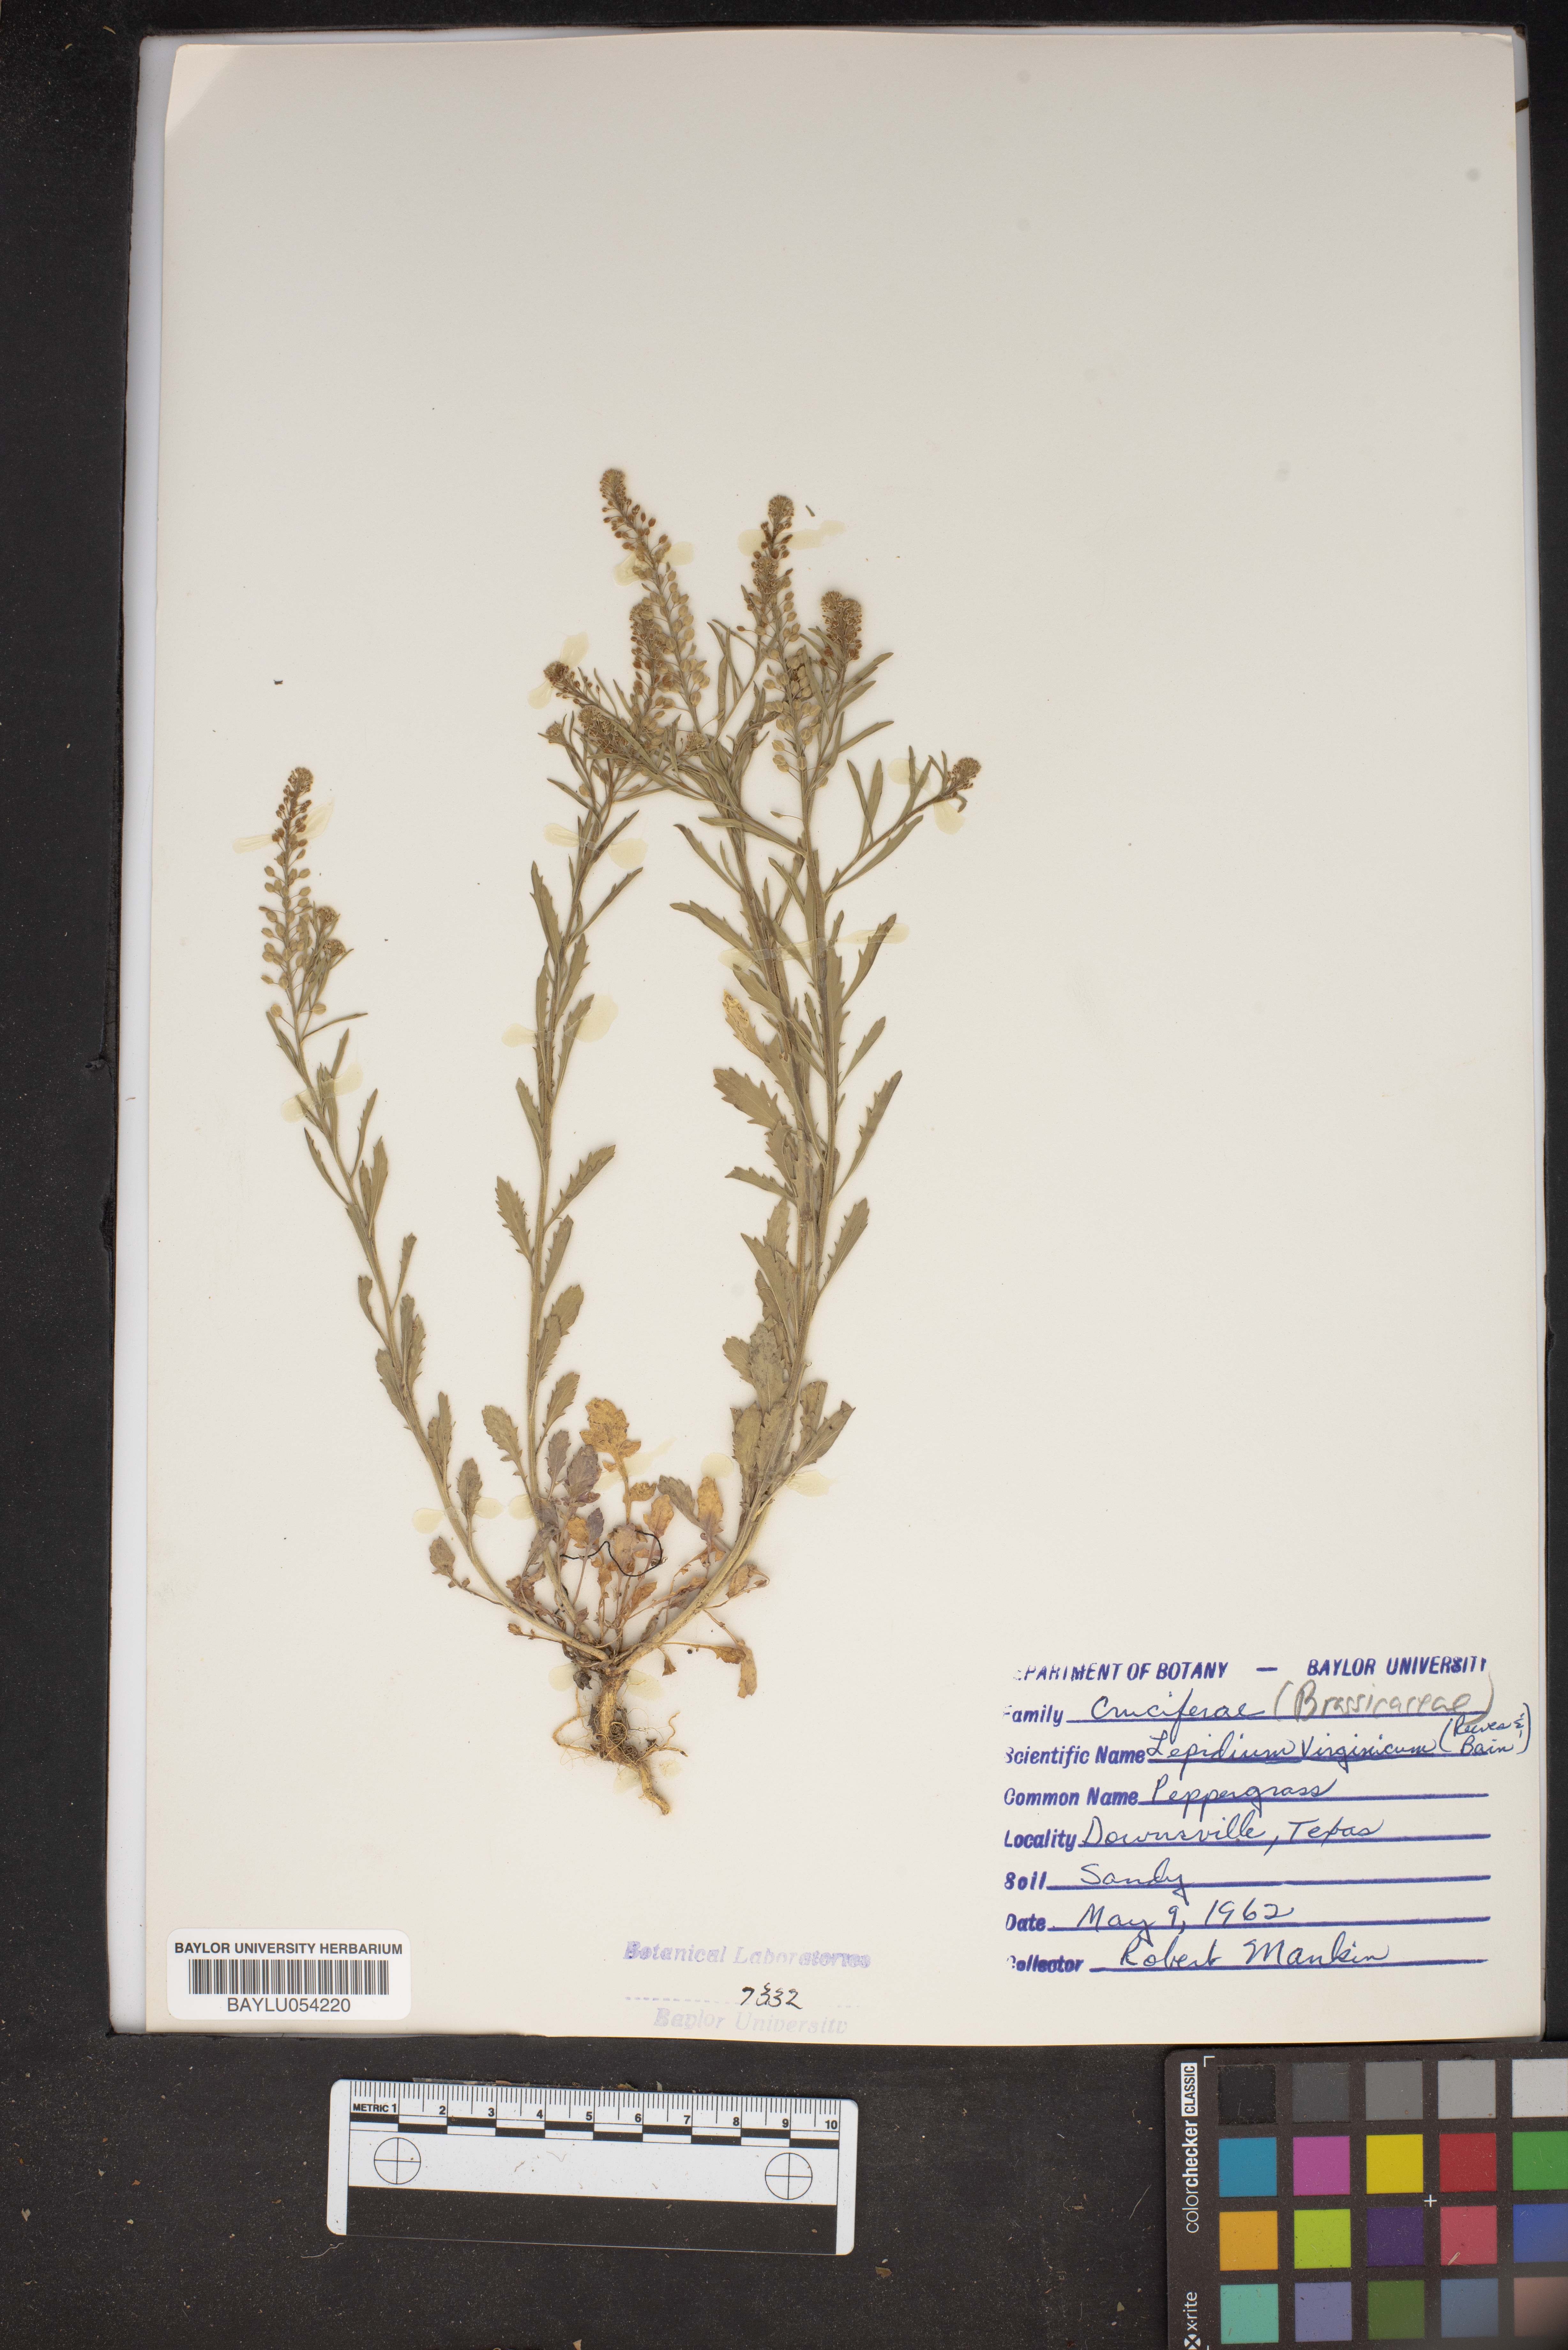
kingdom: Plantae
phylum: Tracheophyta
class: Magnoliopsida
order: Brassicales
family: Brassicaceae
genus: Lepidium
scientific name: Lepidium virginicum
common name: Least pepperwort
